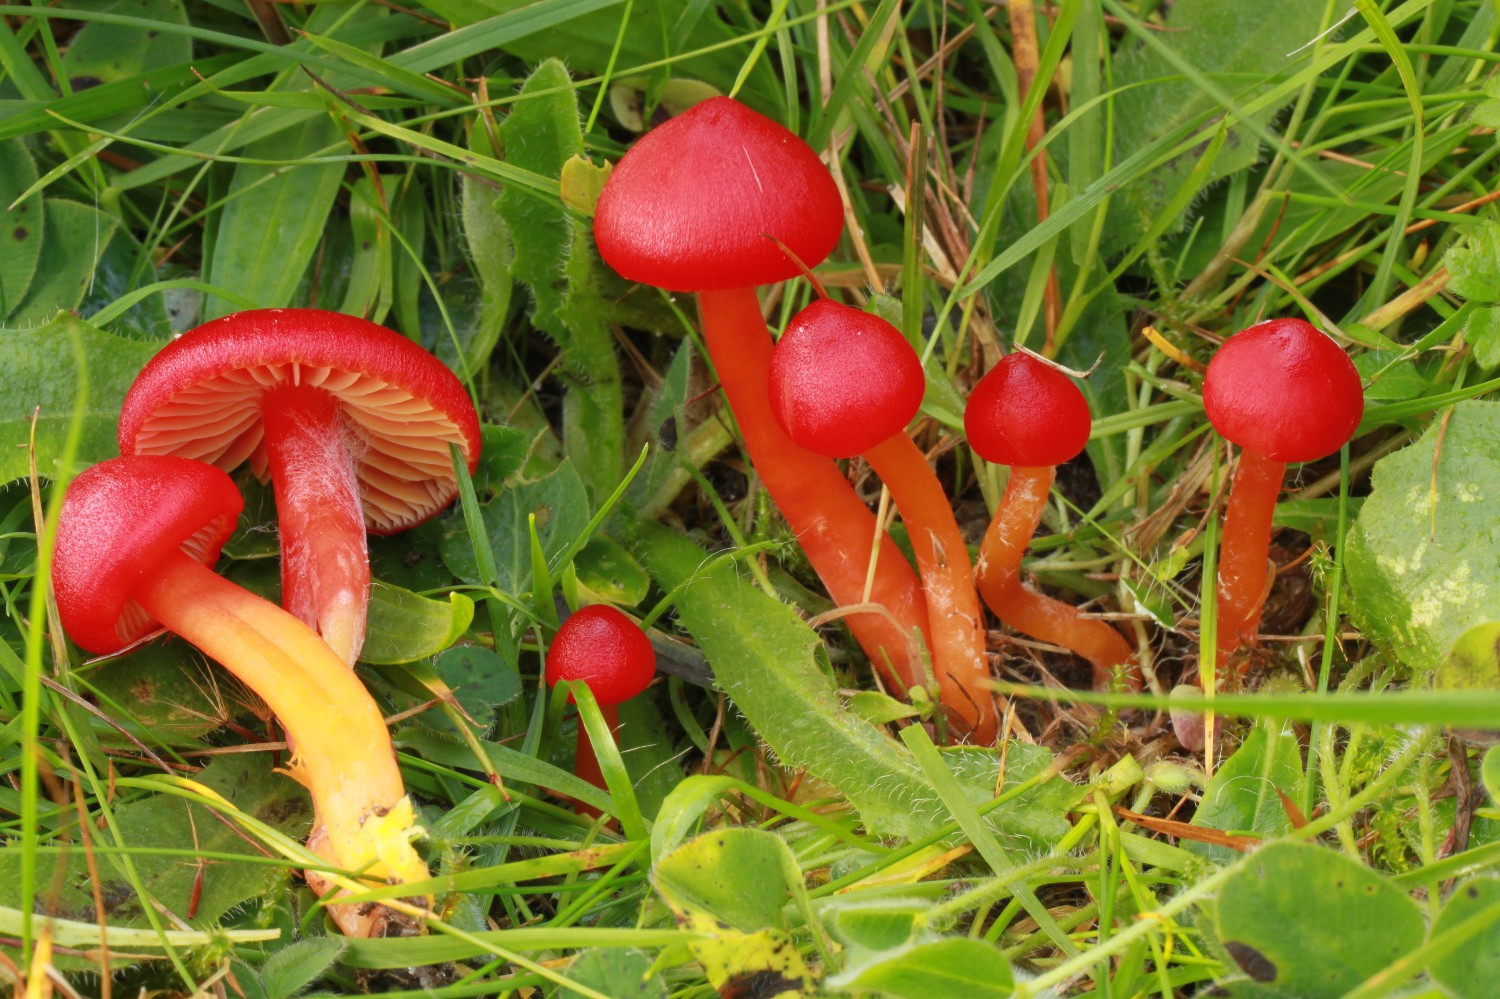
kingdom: Fungi
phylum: Basidiomycota
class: Agaricomycetes
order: Agaricales
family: Hygrophoraceae
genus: Hygrocybe
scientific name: Hygrocybe coccinea
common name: cinnober-vokshat
